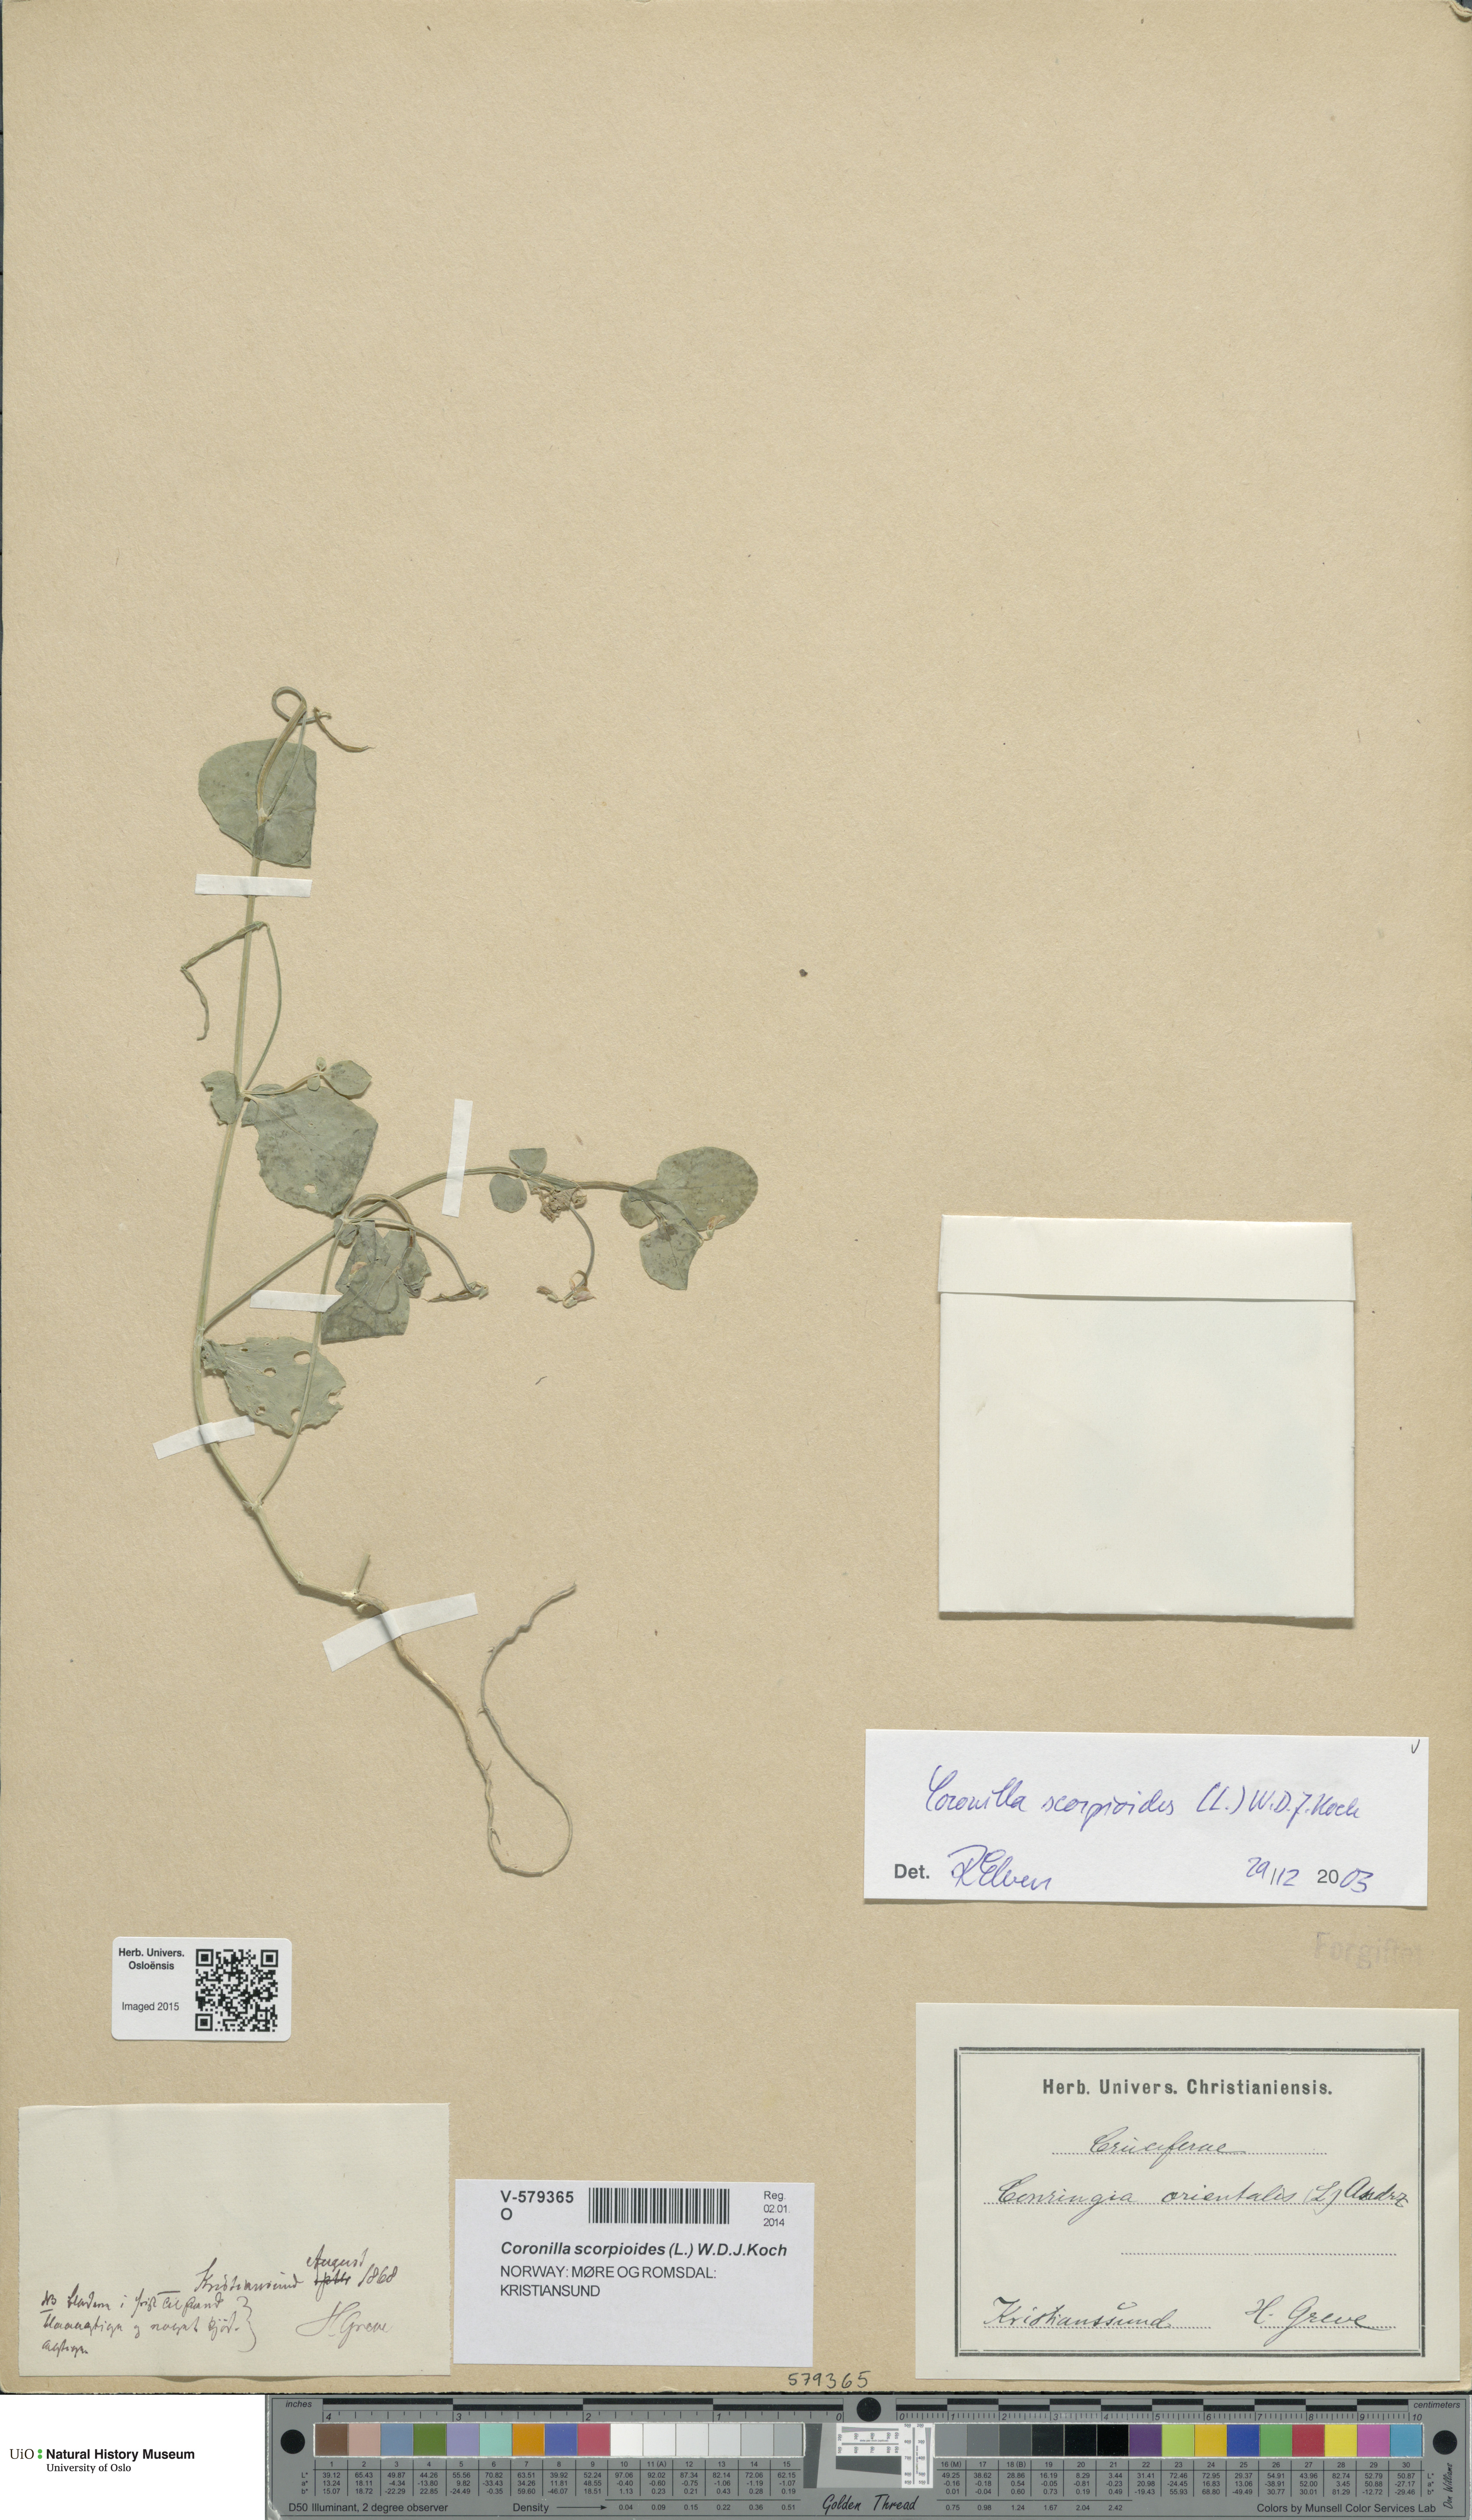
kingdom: Plantae
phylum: Tracheophyta
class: Magnoliopsida
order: Fabales
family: Fabaceae
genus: Coronilla
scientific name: Coronilla scorpioides
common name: Annual scorpion-vetch
